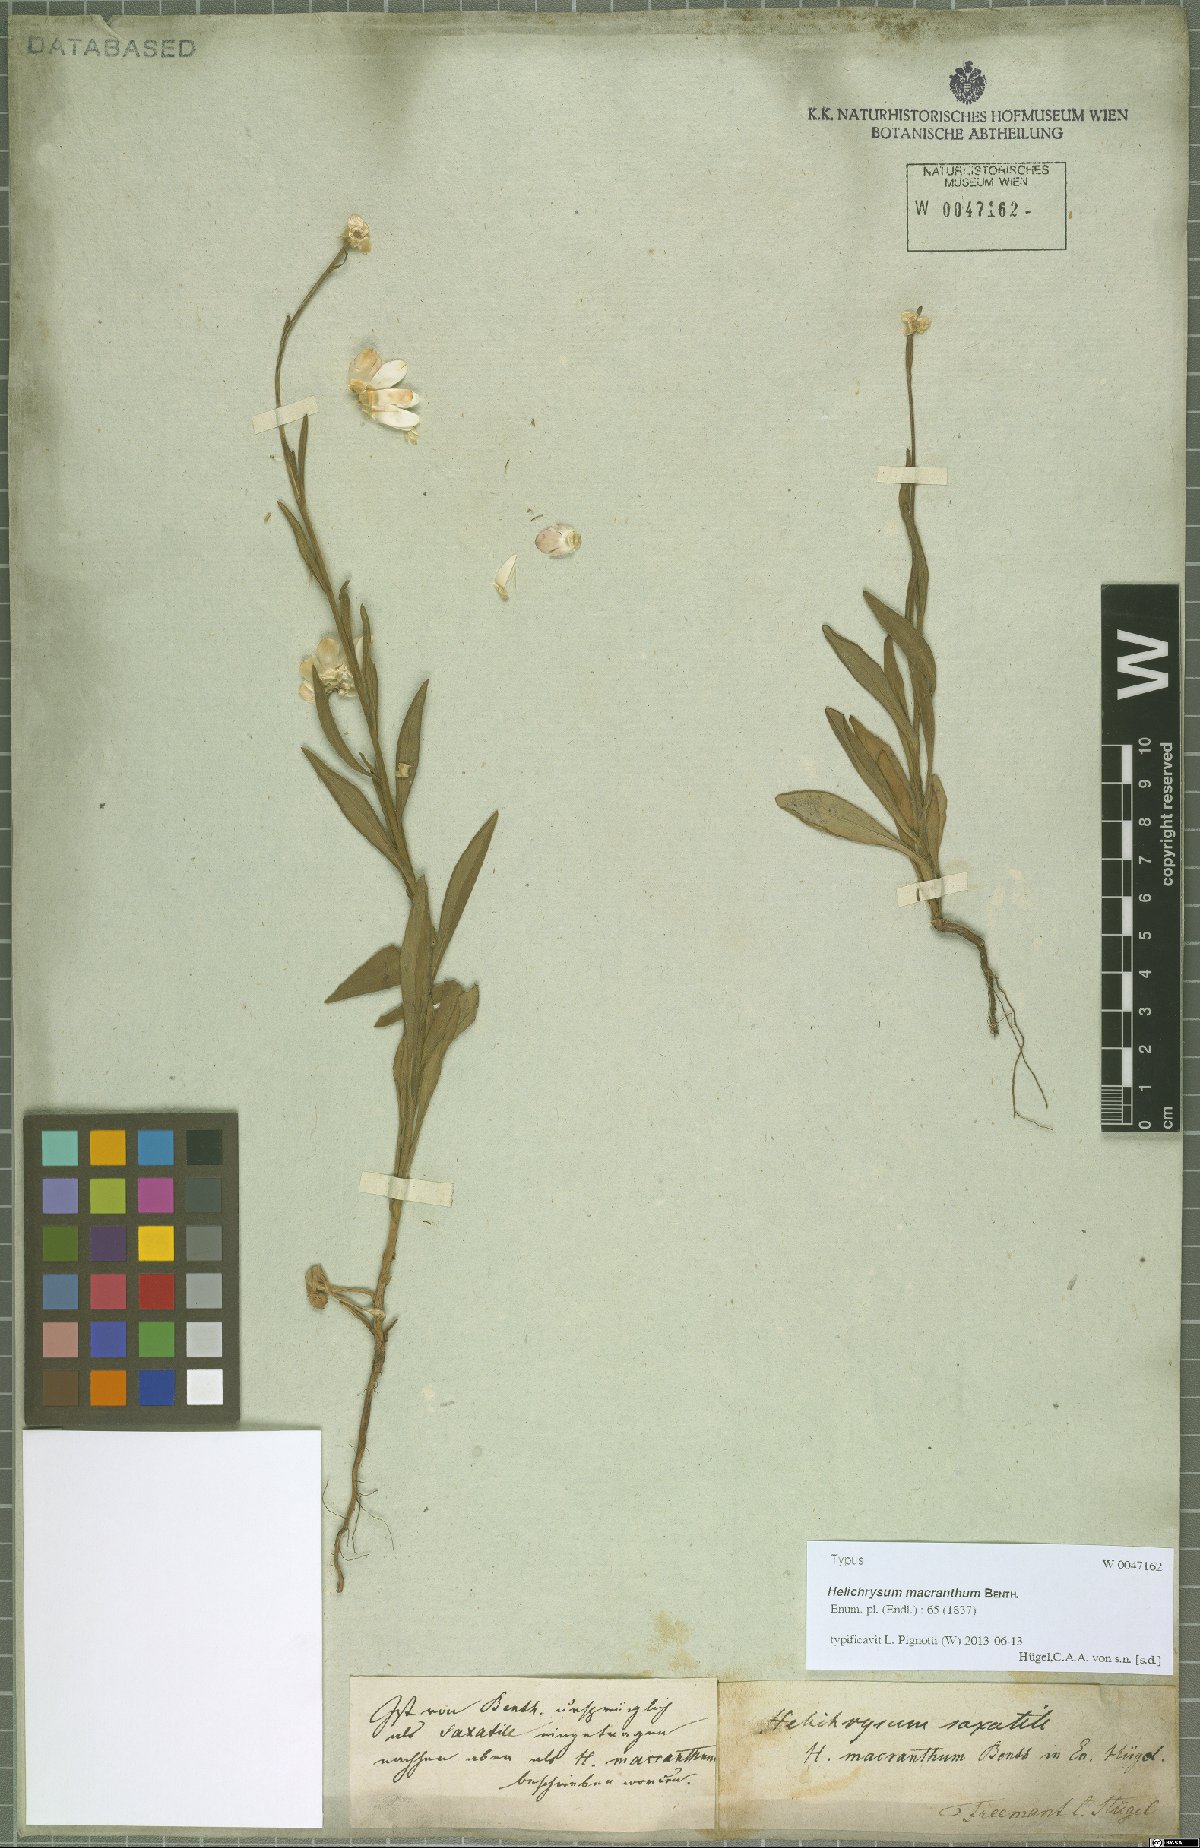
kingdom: Plantae
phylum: Tracheophyta
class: Magnoliopsida
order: Asterales
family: Asteraceae
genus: Xerochrysum
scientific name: Xerochrysum macranthum
